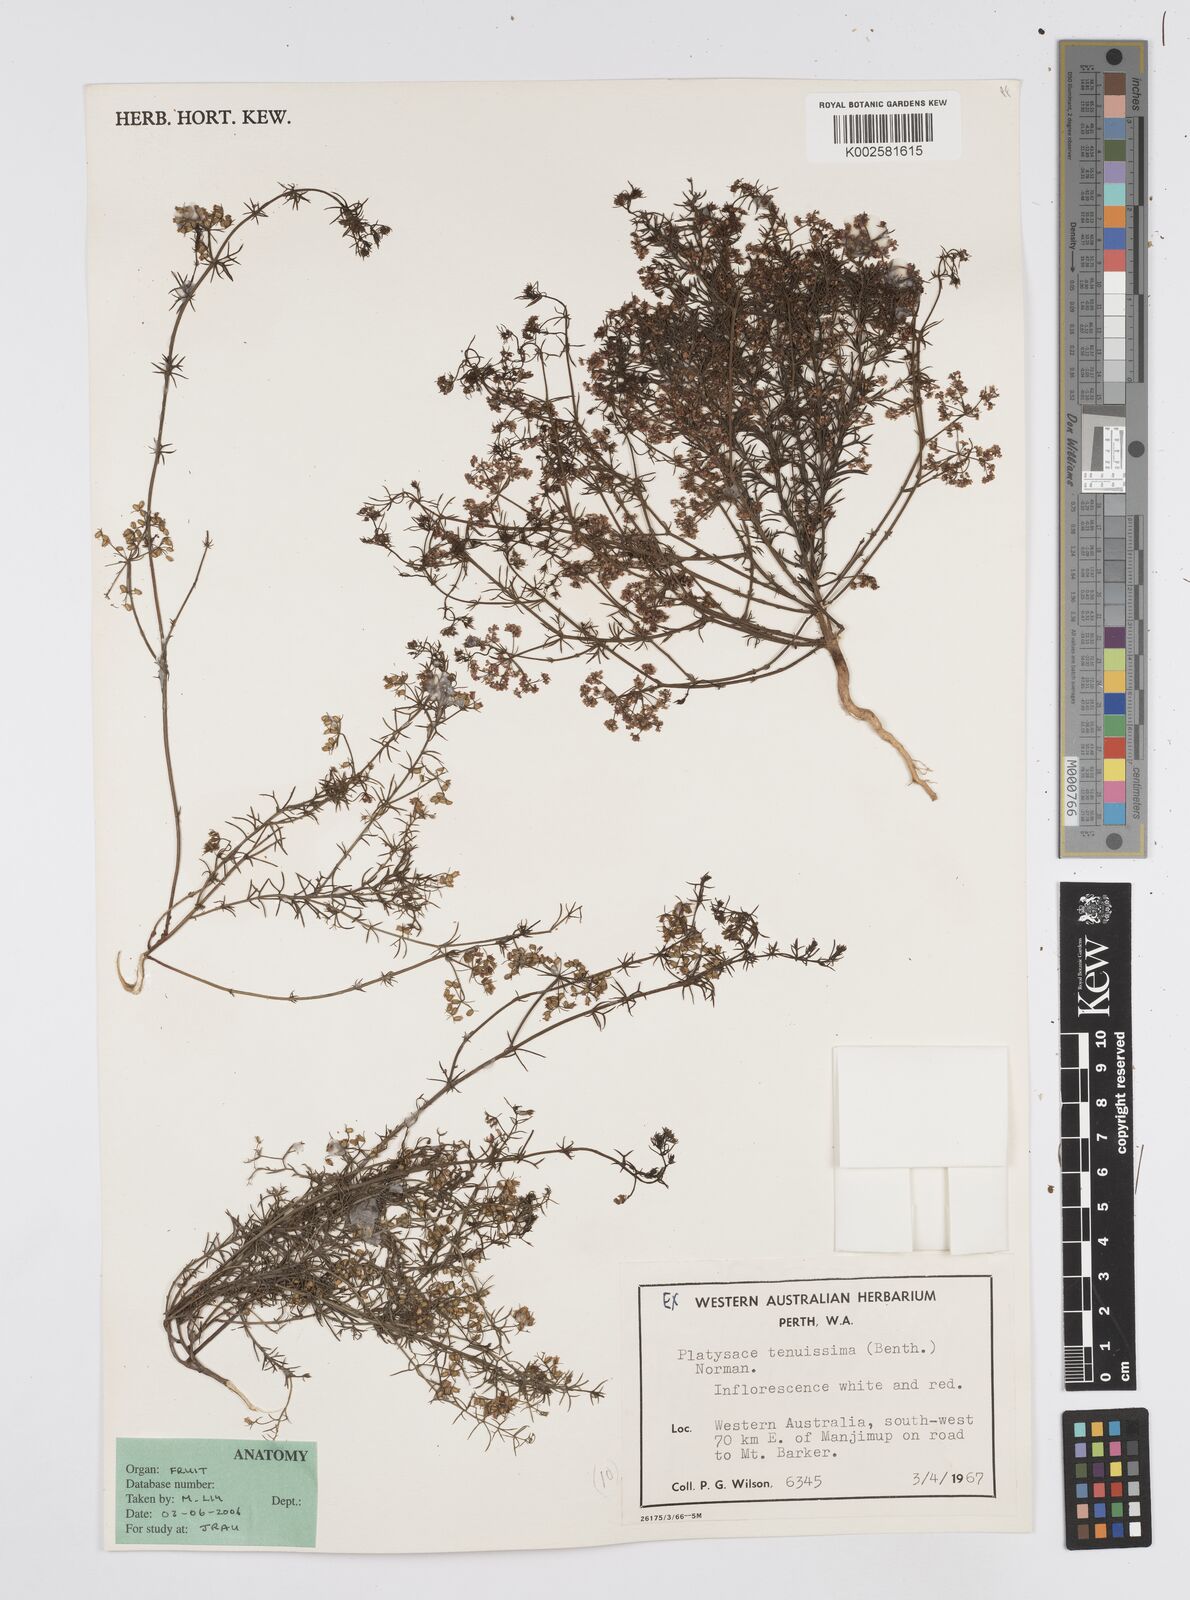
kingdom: Plantae
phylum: Tracheophyta
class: Magnoliopsida
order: Apiales
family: Apiaceae
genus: Platysace
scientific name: Platysace tenuissima
